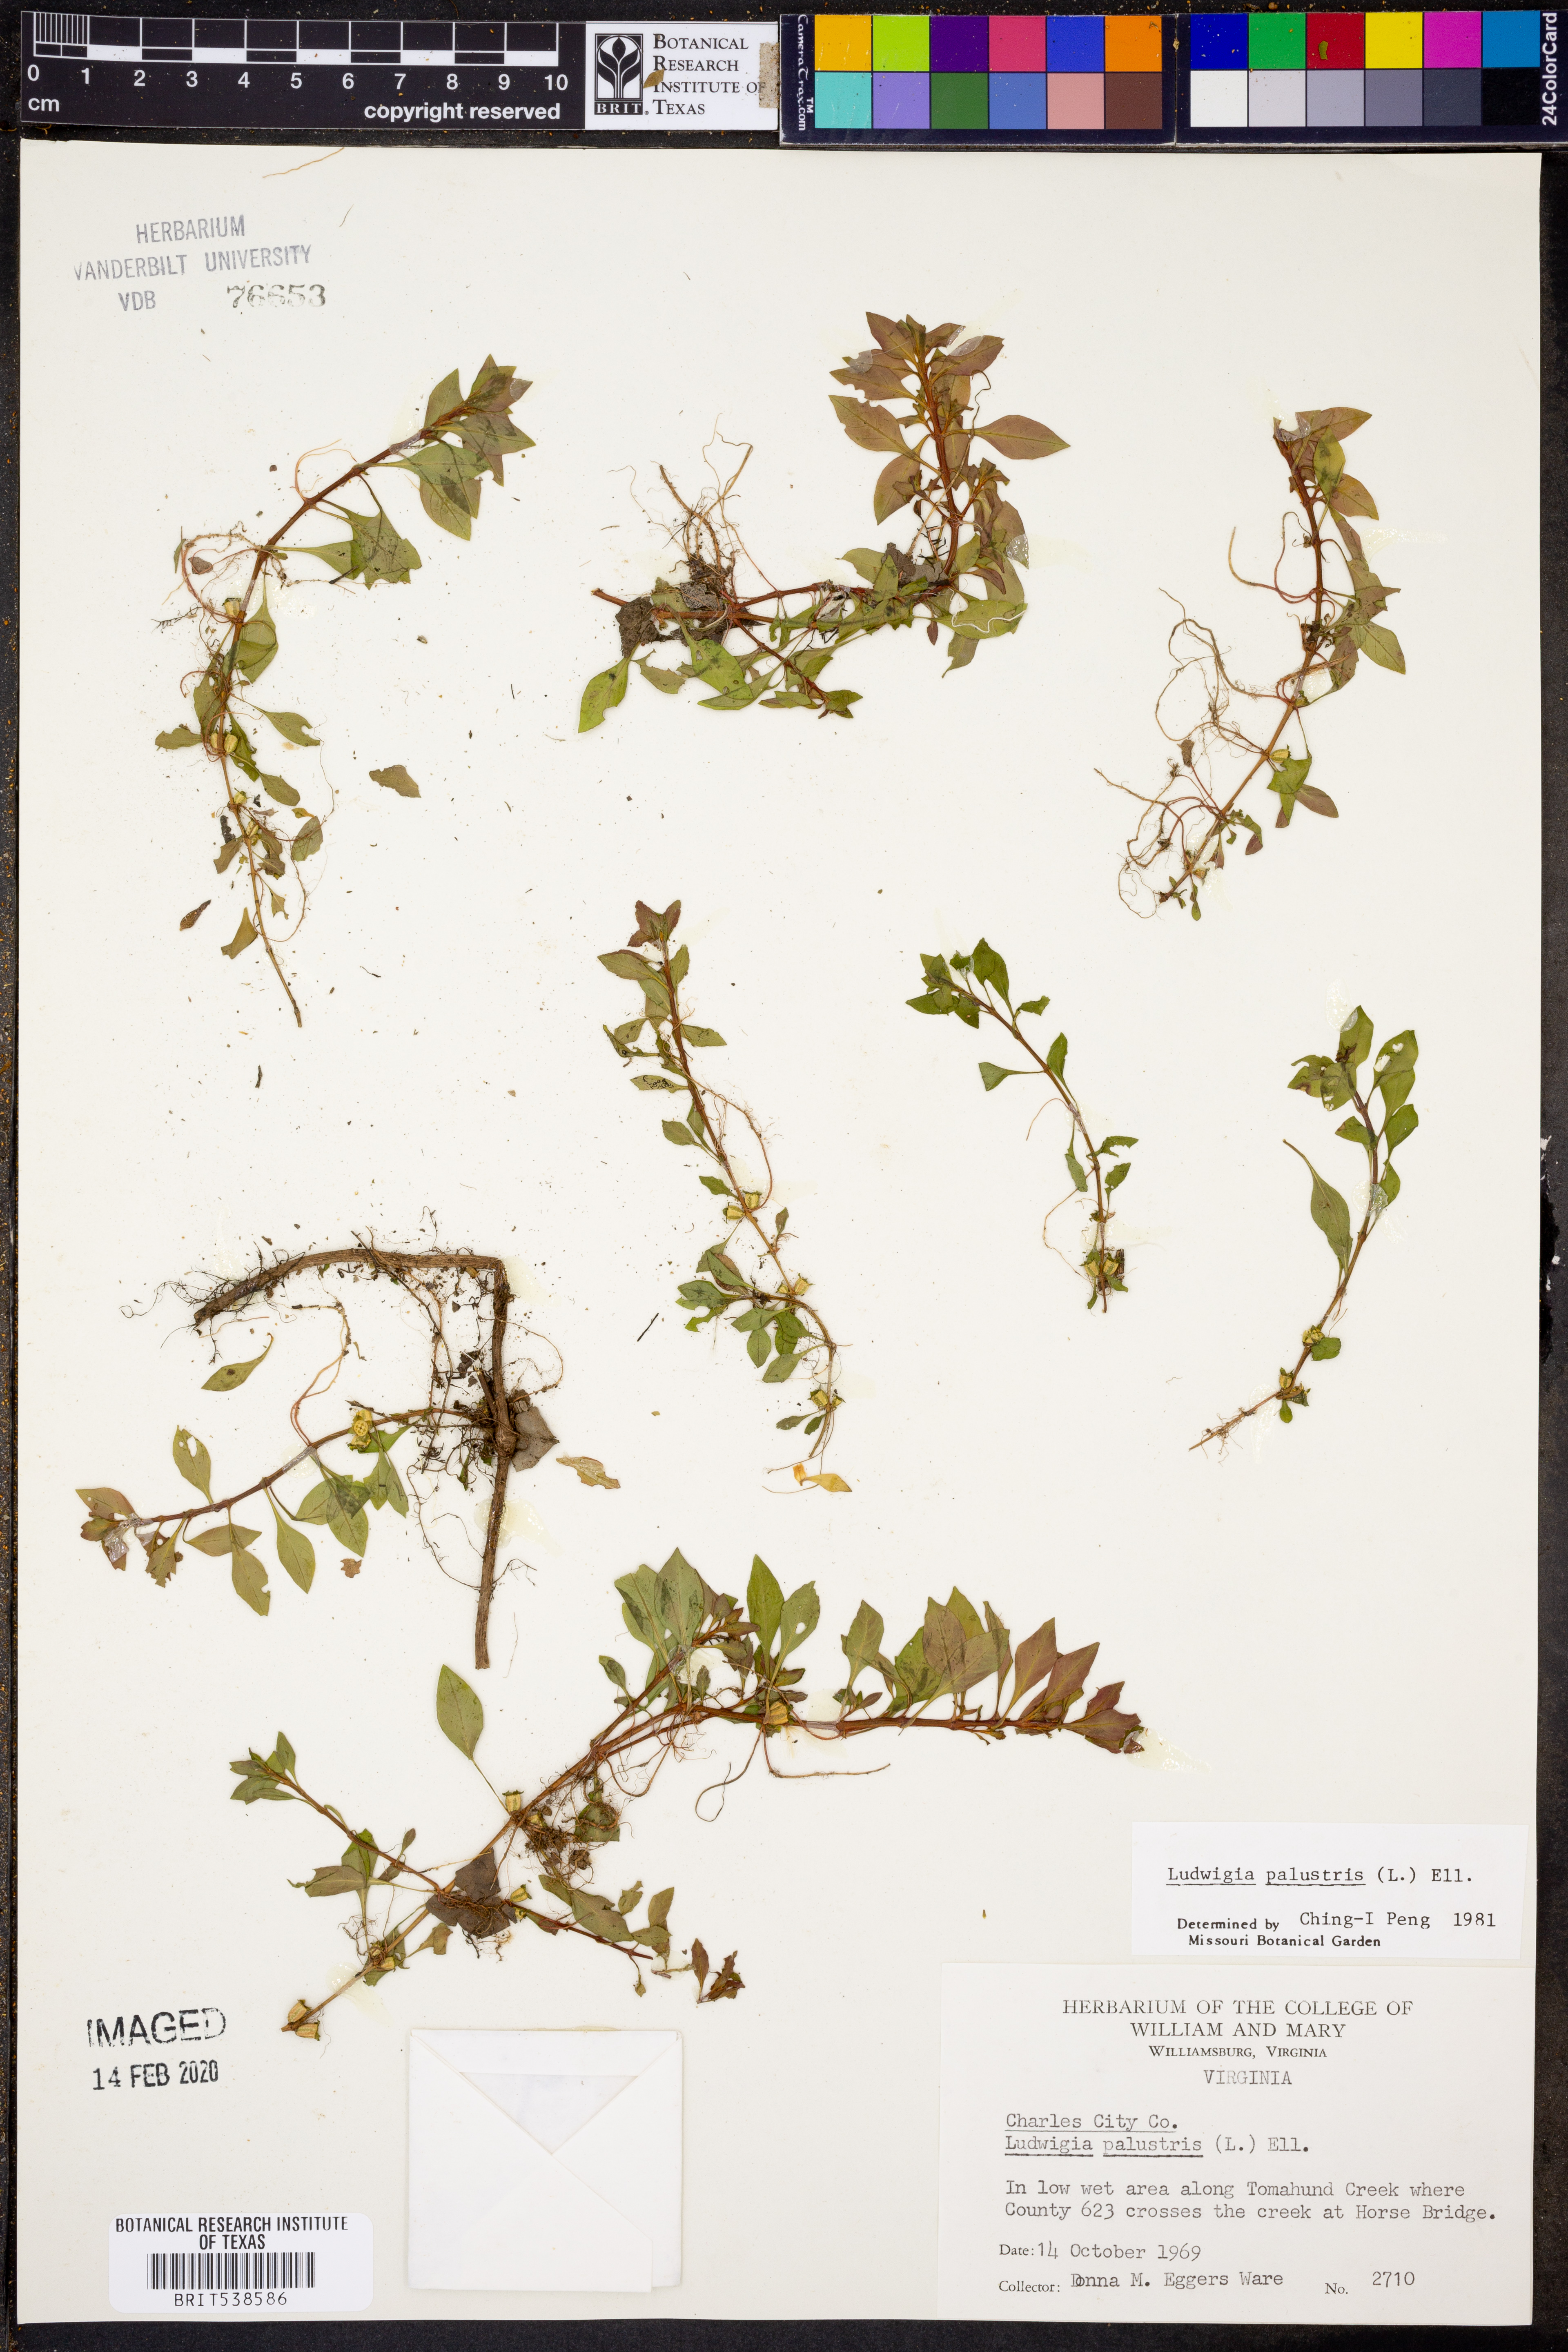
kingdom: Plantae
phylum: Tracheophyta
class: Magnoliopsida
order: Myrtales
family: Onagraceae
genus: Ludwigia
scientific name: Ludwigia palustris
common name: Hampshire-purslane
